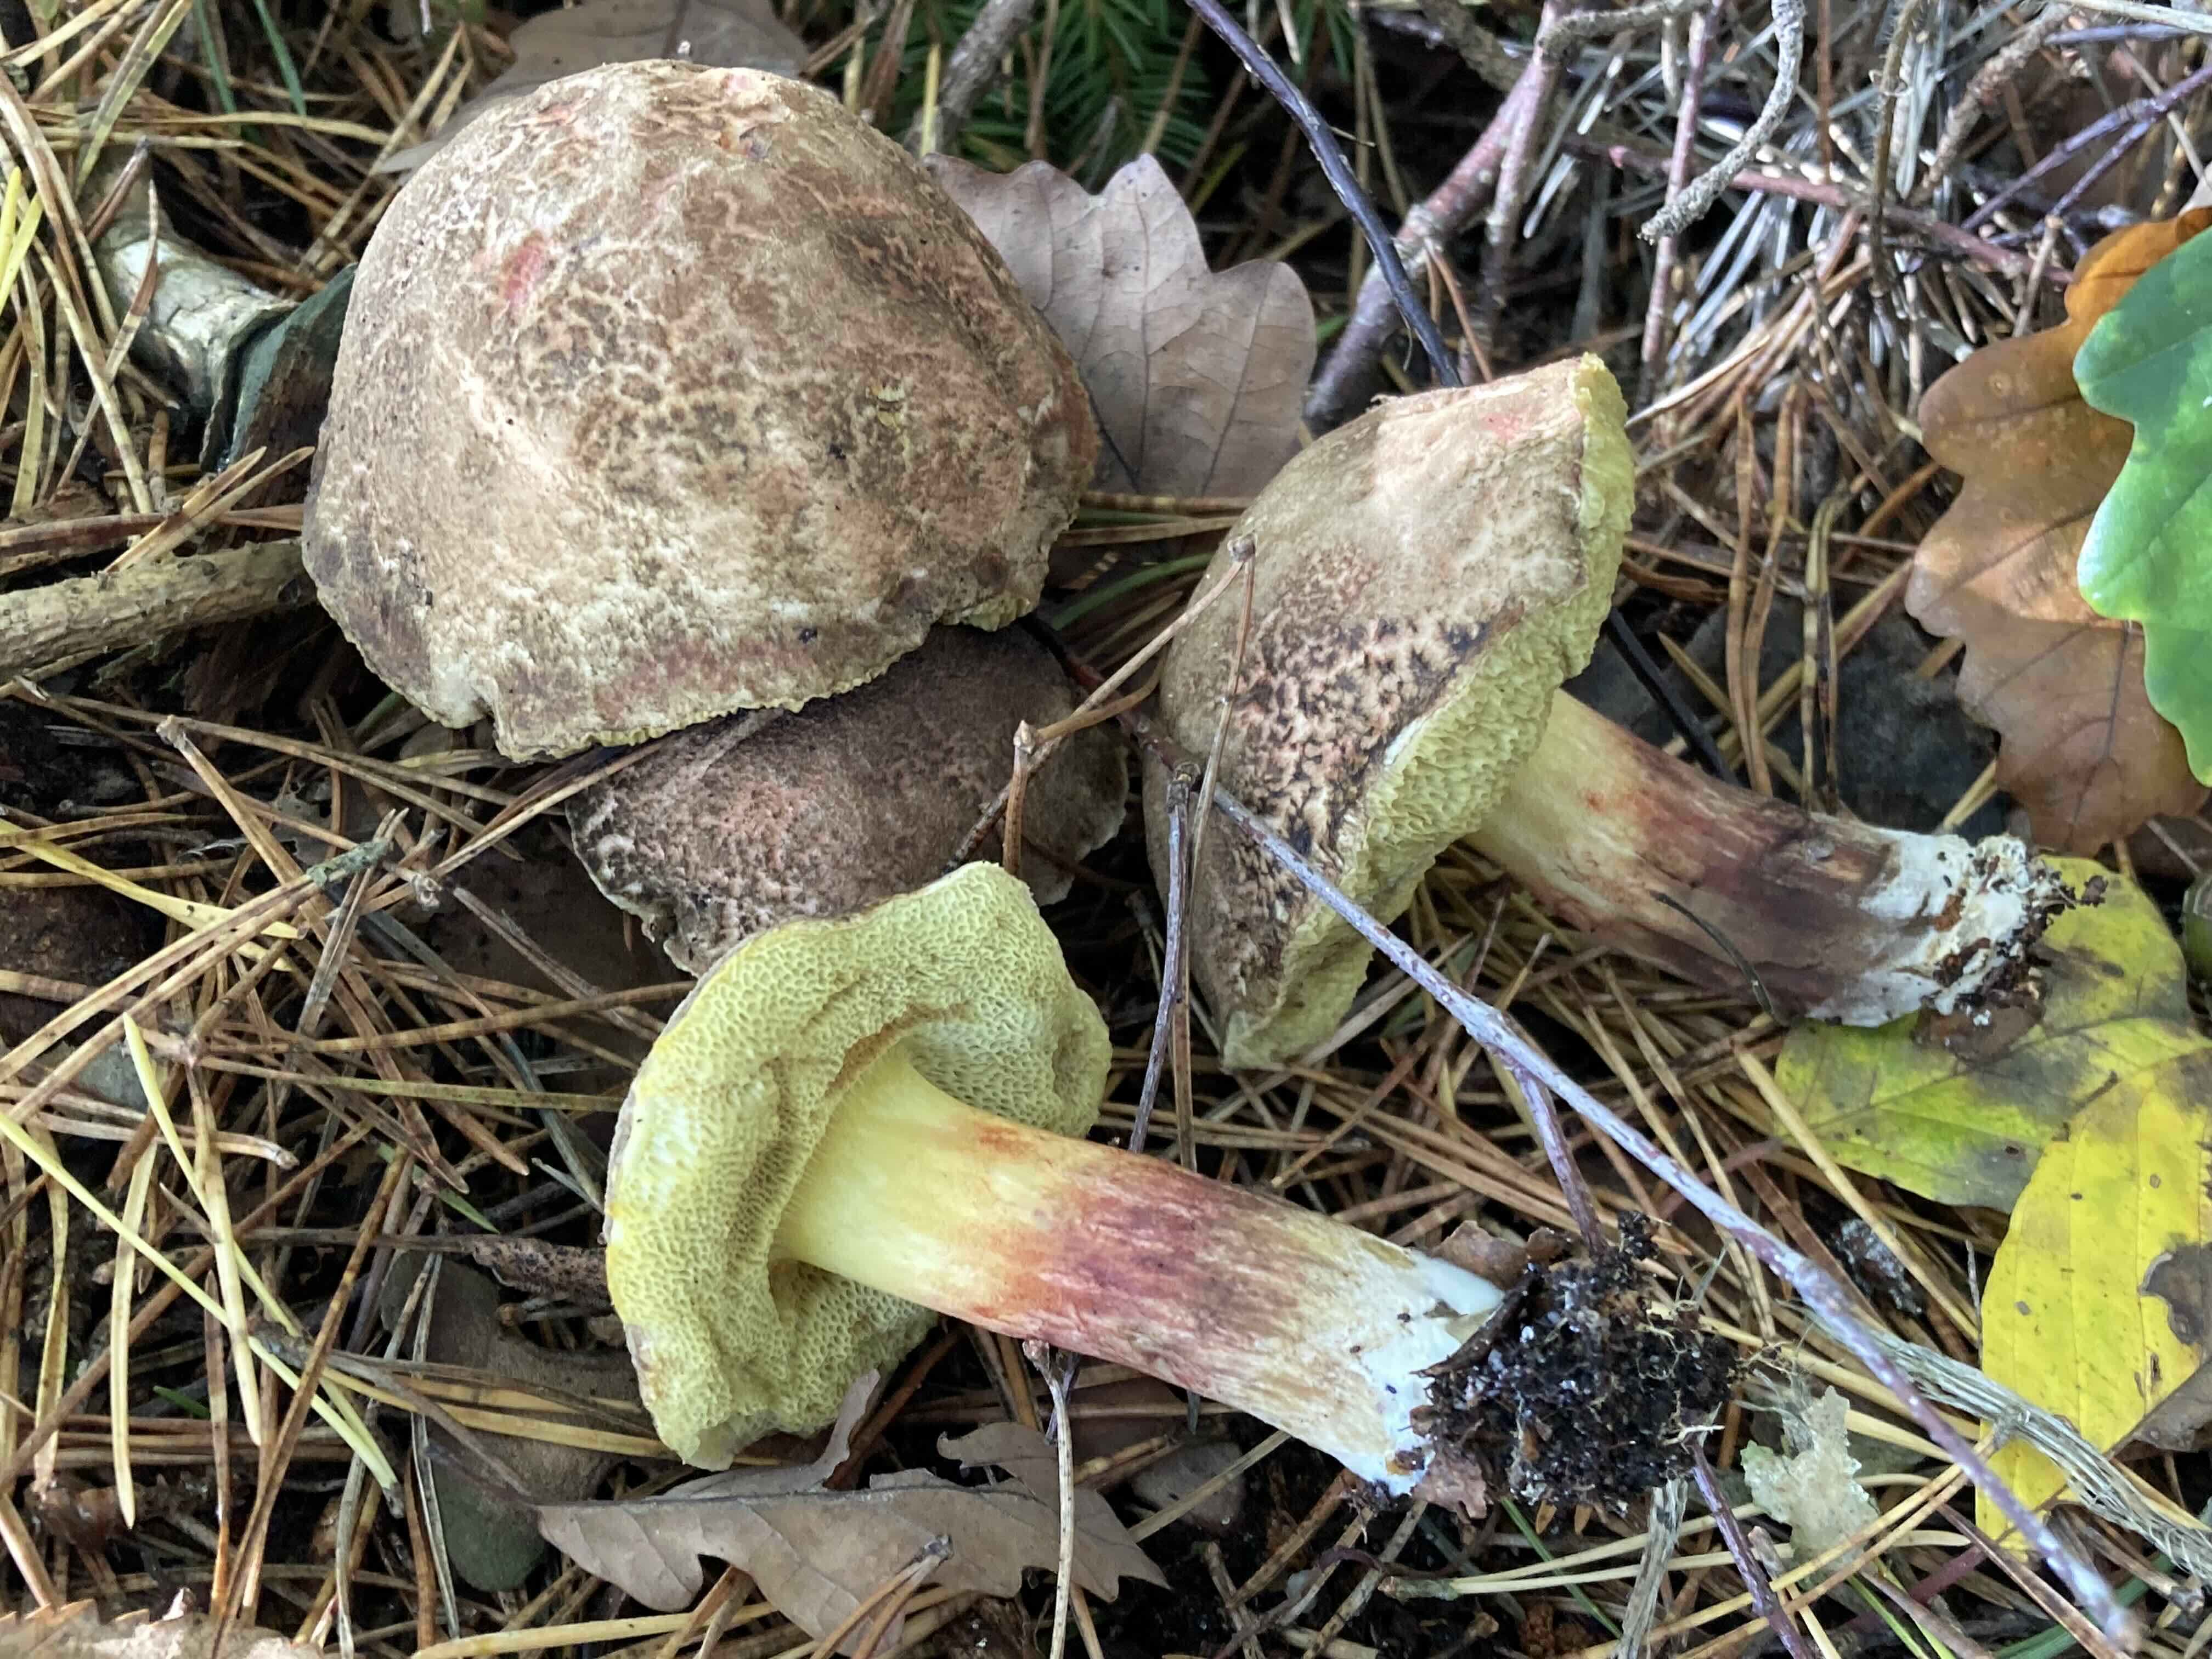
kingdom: Fungi
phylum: Basidiomycota
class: Agaricomycetes
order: Boletales
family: Boletaceae
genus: Xerocomellus
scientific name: Xerocomellus
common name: dværgrørhat
